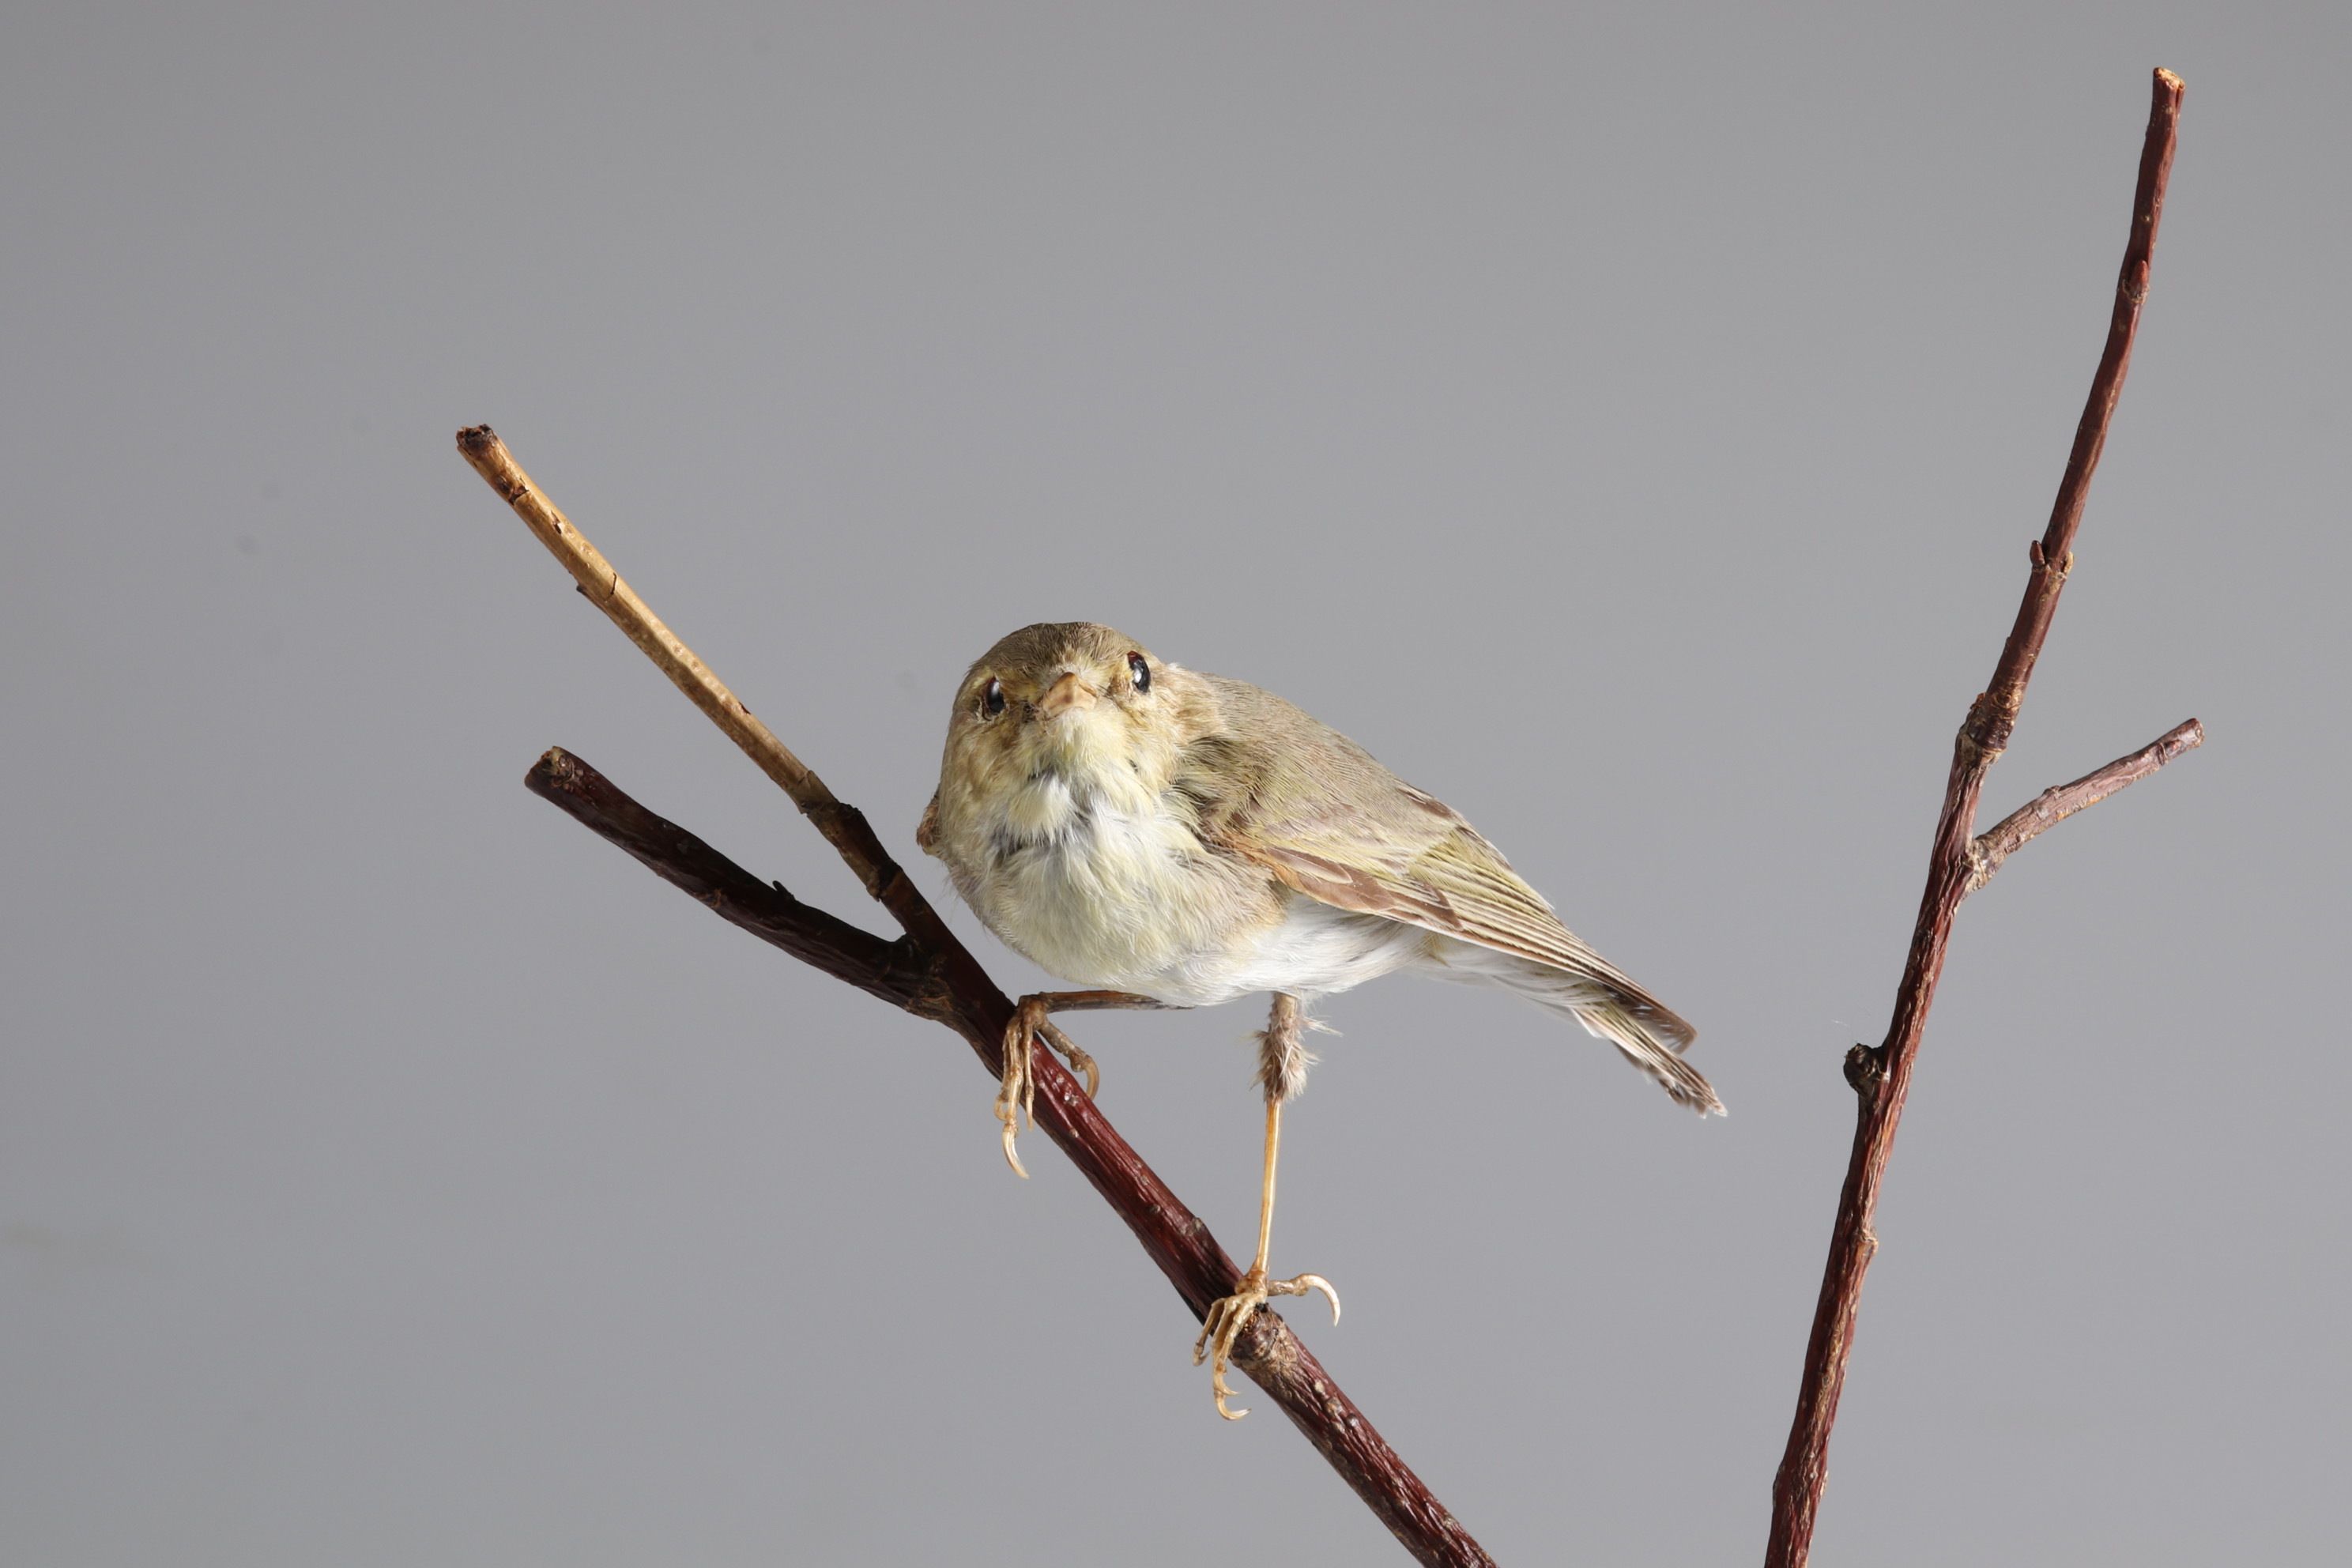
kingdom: Animalia
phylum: Chordata
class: Aves
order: Passeriformes
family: Phylloscopidae
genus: Phylloscopus
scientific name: Phylloscopus sibillatrix
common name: Wood warbler
